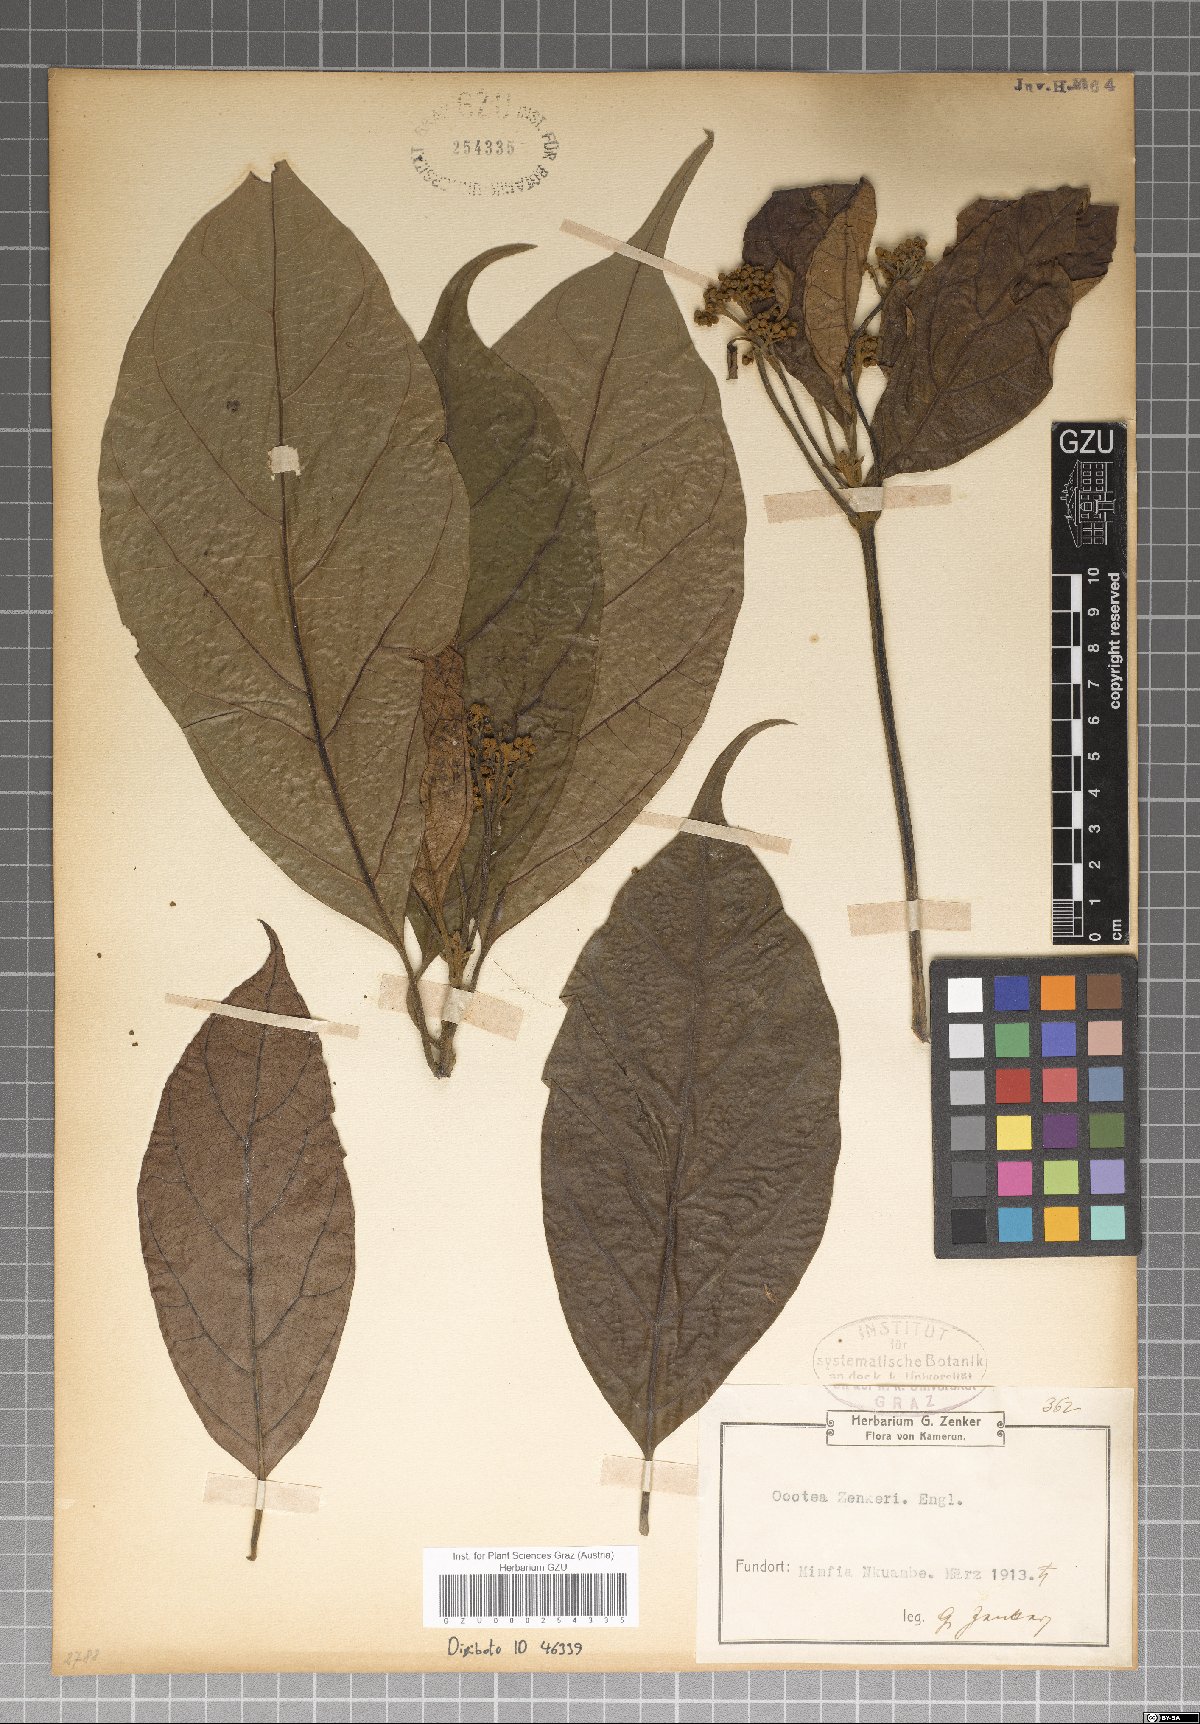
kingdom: Plantae
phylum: Tracheophyta
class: Magnoliopsida
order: Laurales
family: Lauraceae
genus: Hypodaphnis
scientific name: Hypodaphnis zenkeri
